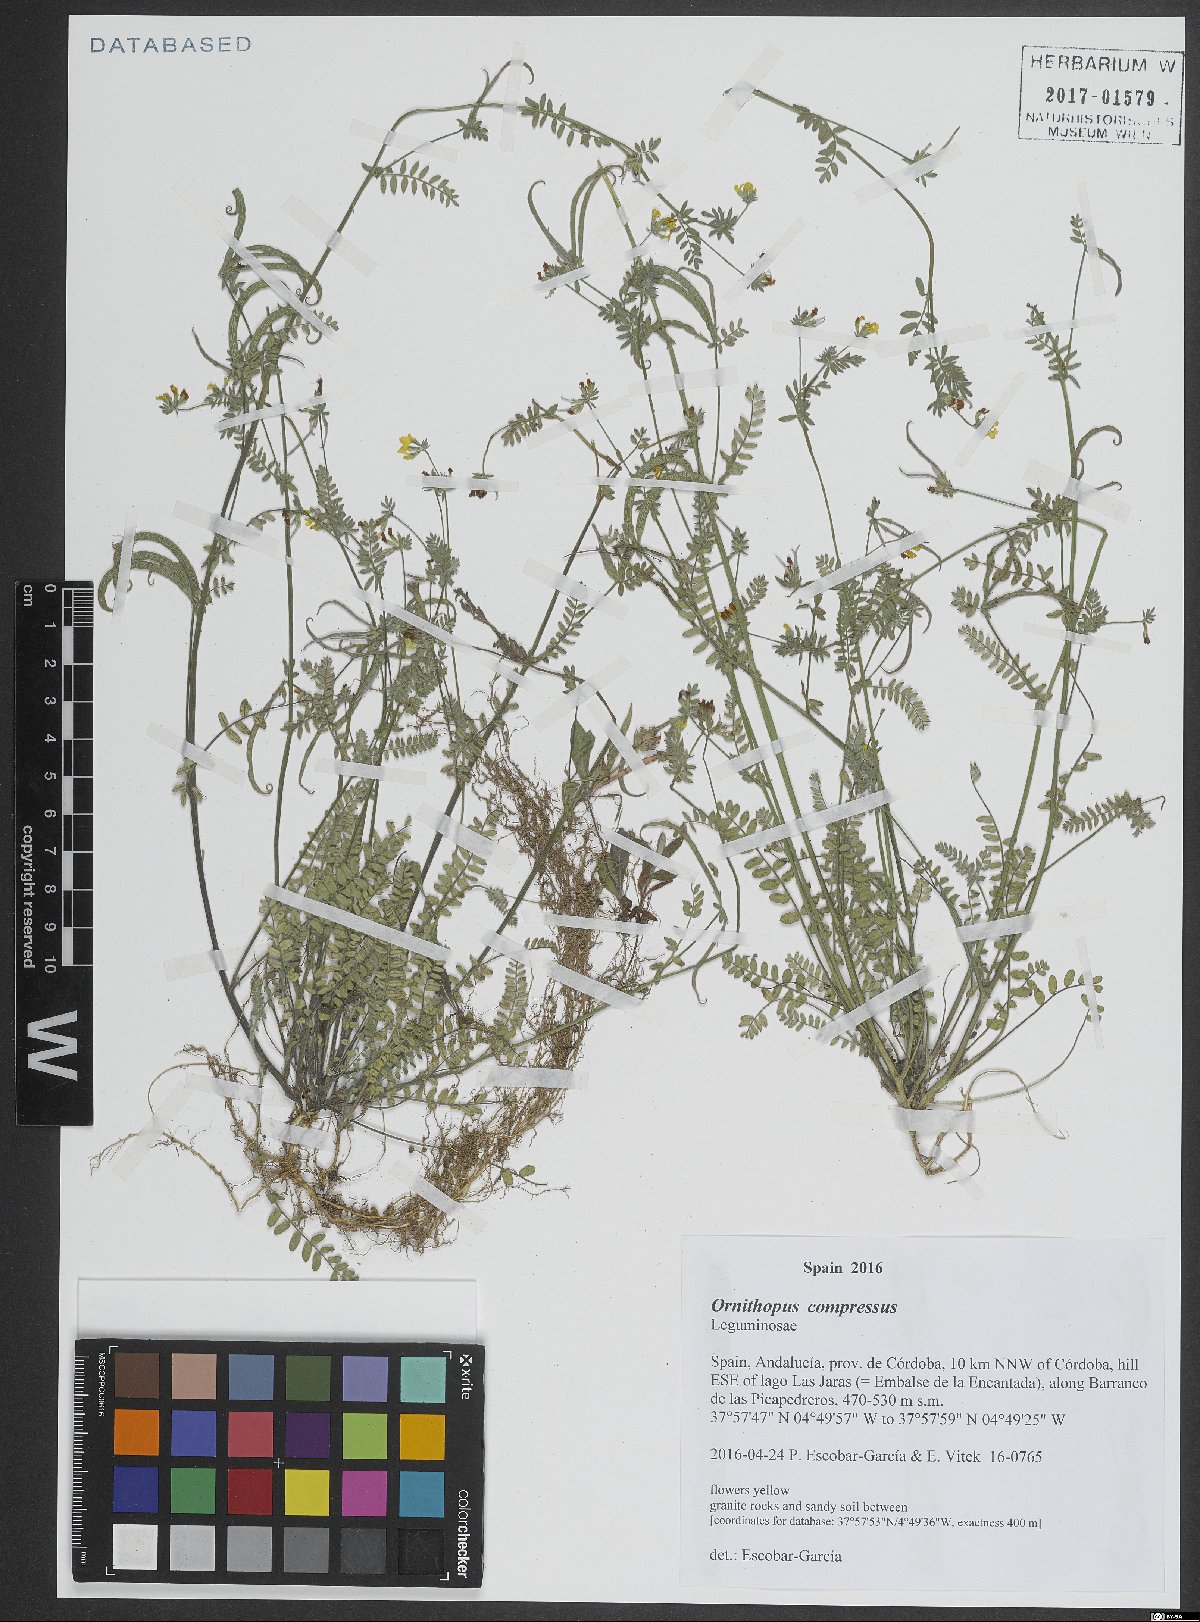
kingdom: Plantae
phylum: Tracheophyta
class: Magnoliopsida
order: Fabales
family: Fabaceae
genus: Ornithopus
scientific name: Ornithopus compressus
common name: Yellow serradella
